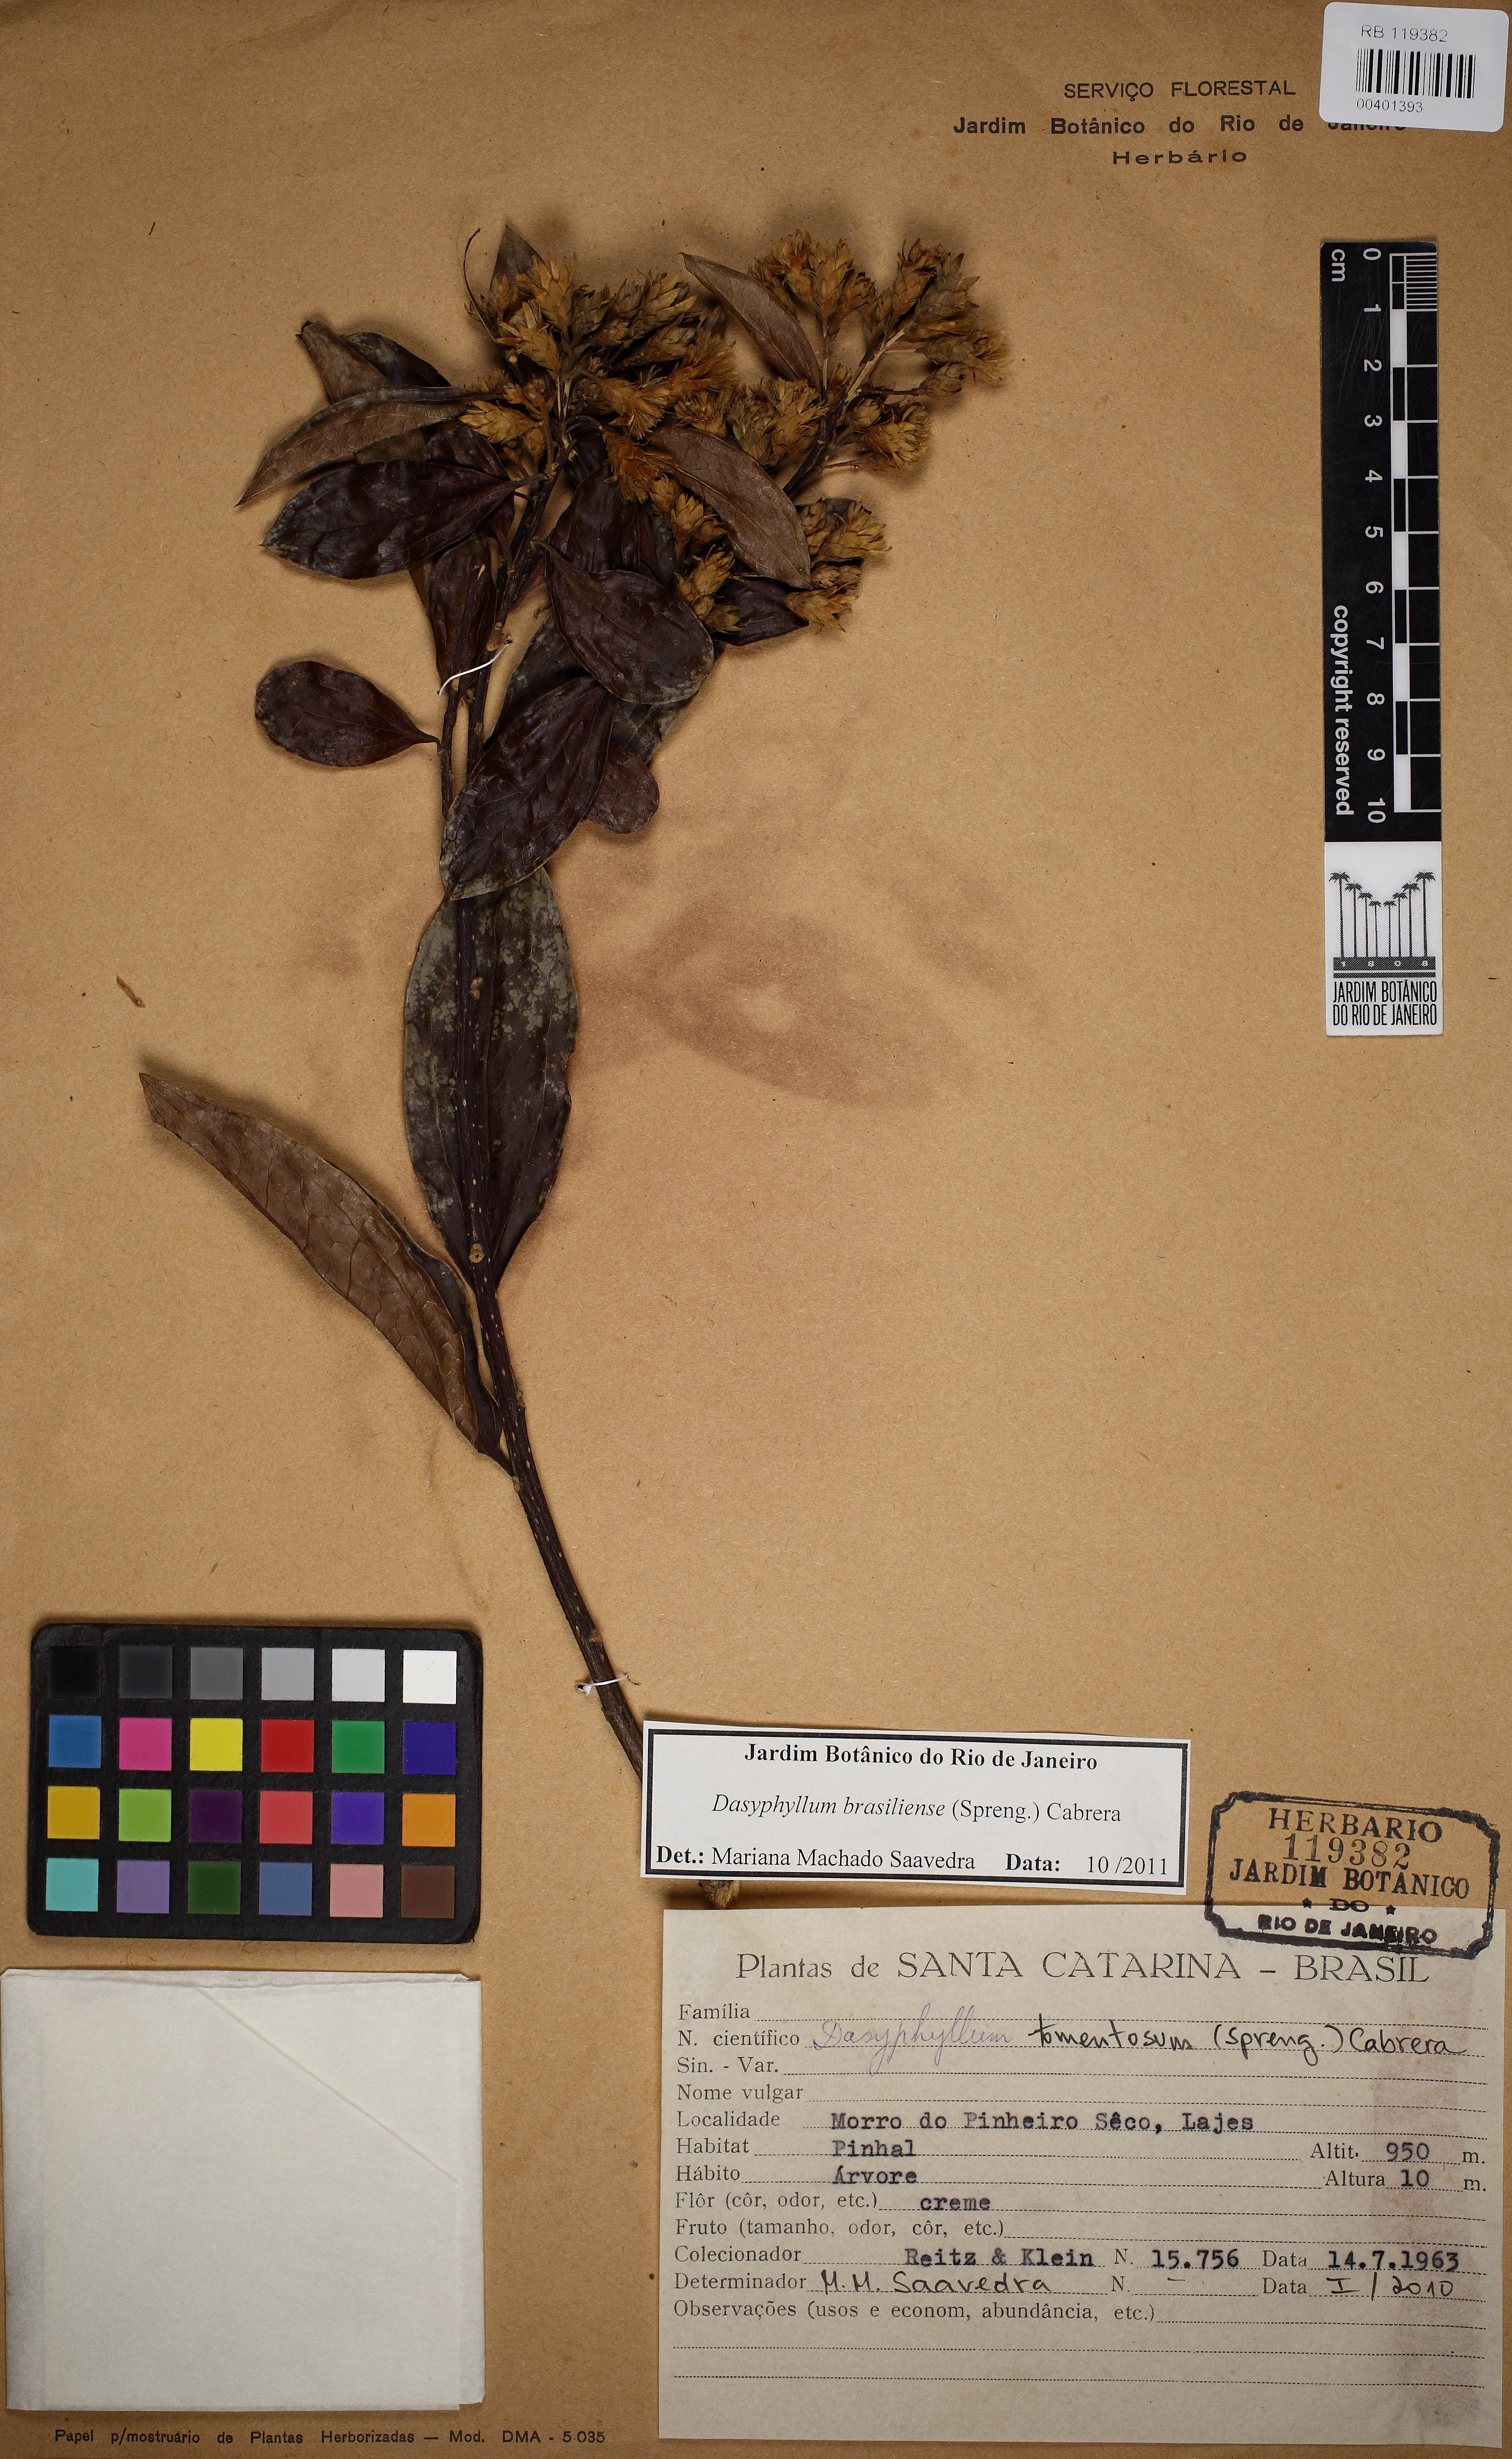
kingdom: Plantae
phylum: Tracheophyta
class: Magnoliopsida
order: Asterales
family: Asteraceae
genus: Dasyphyllum
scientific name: Dasyphyllum brasiliense
